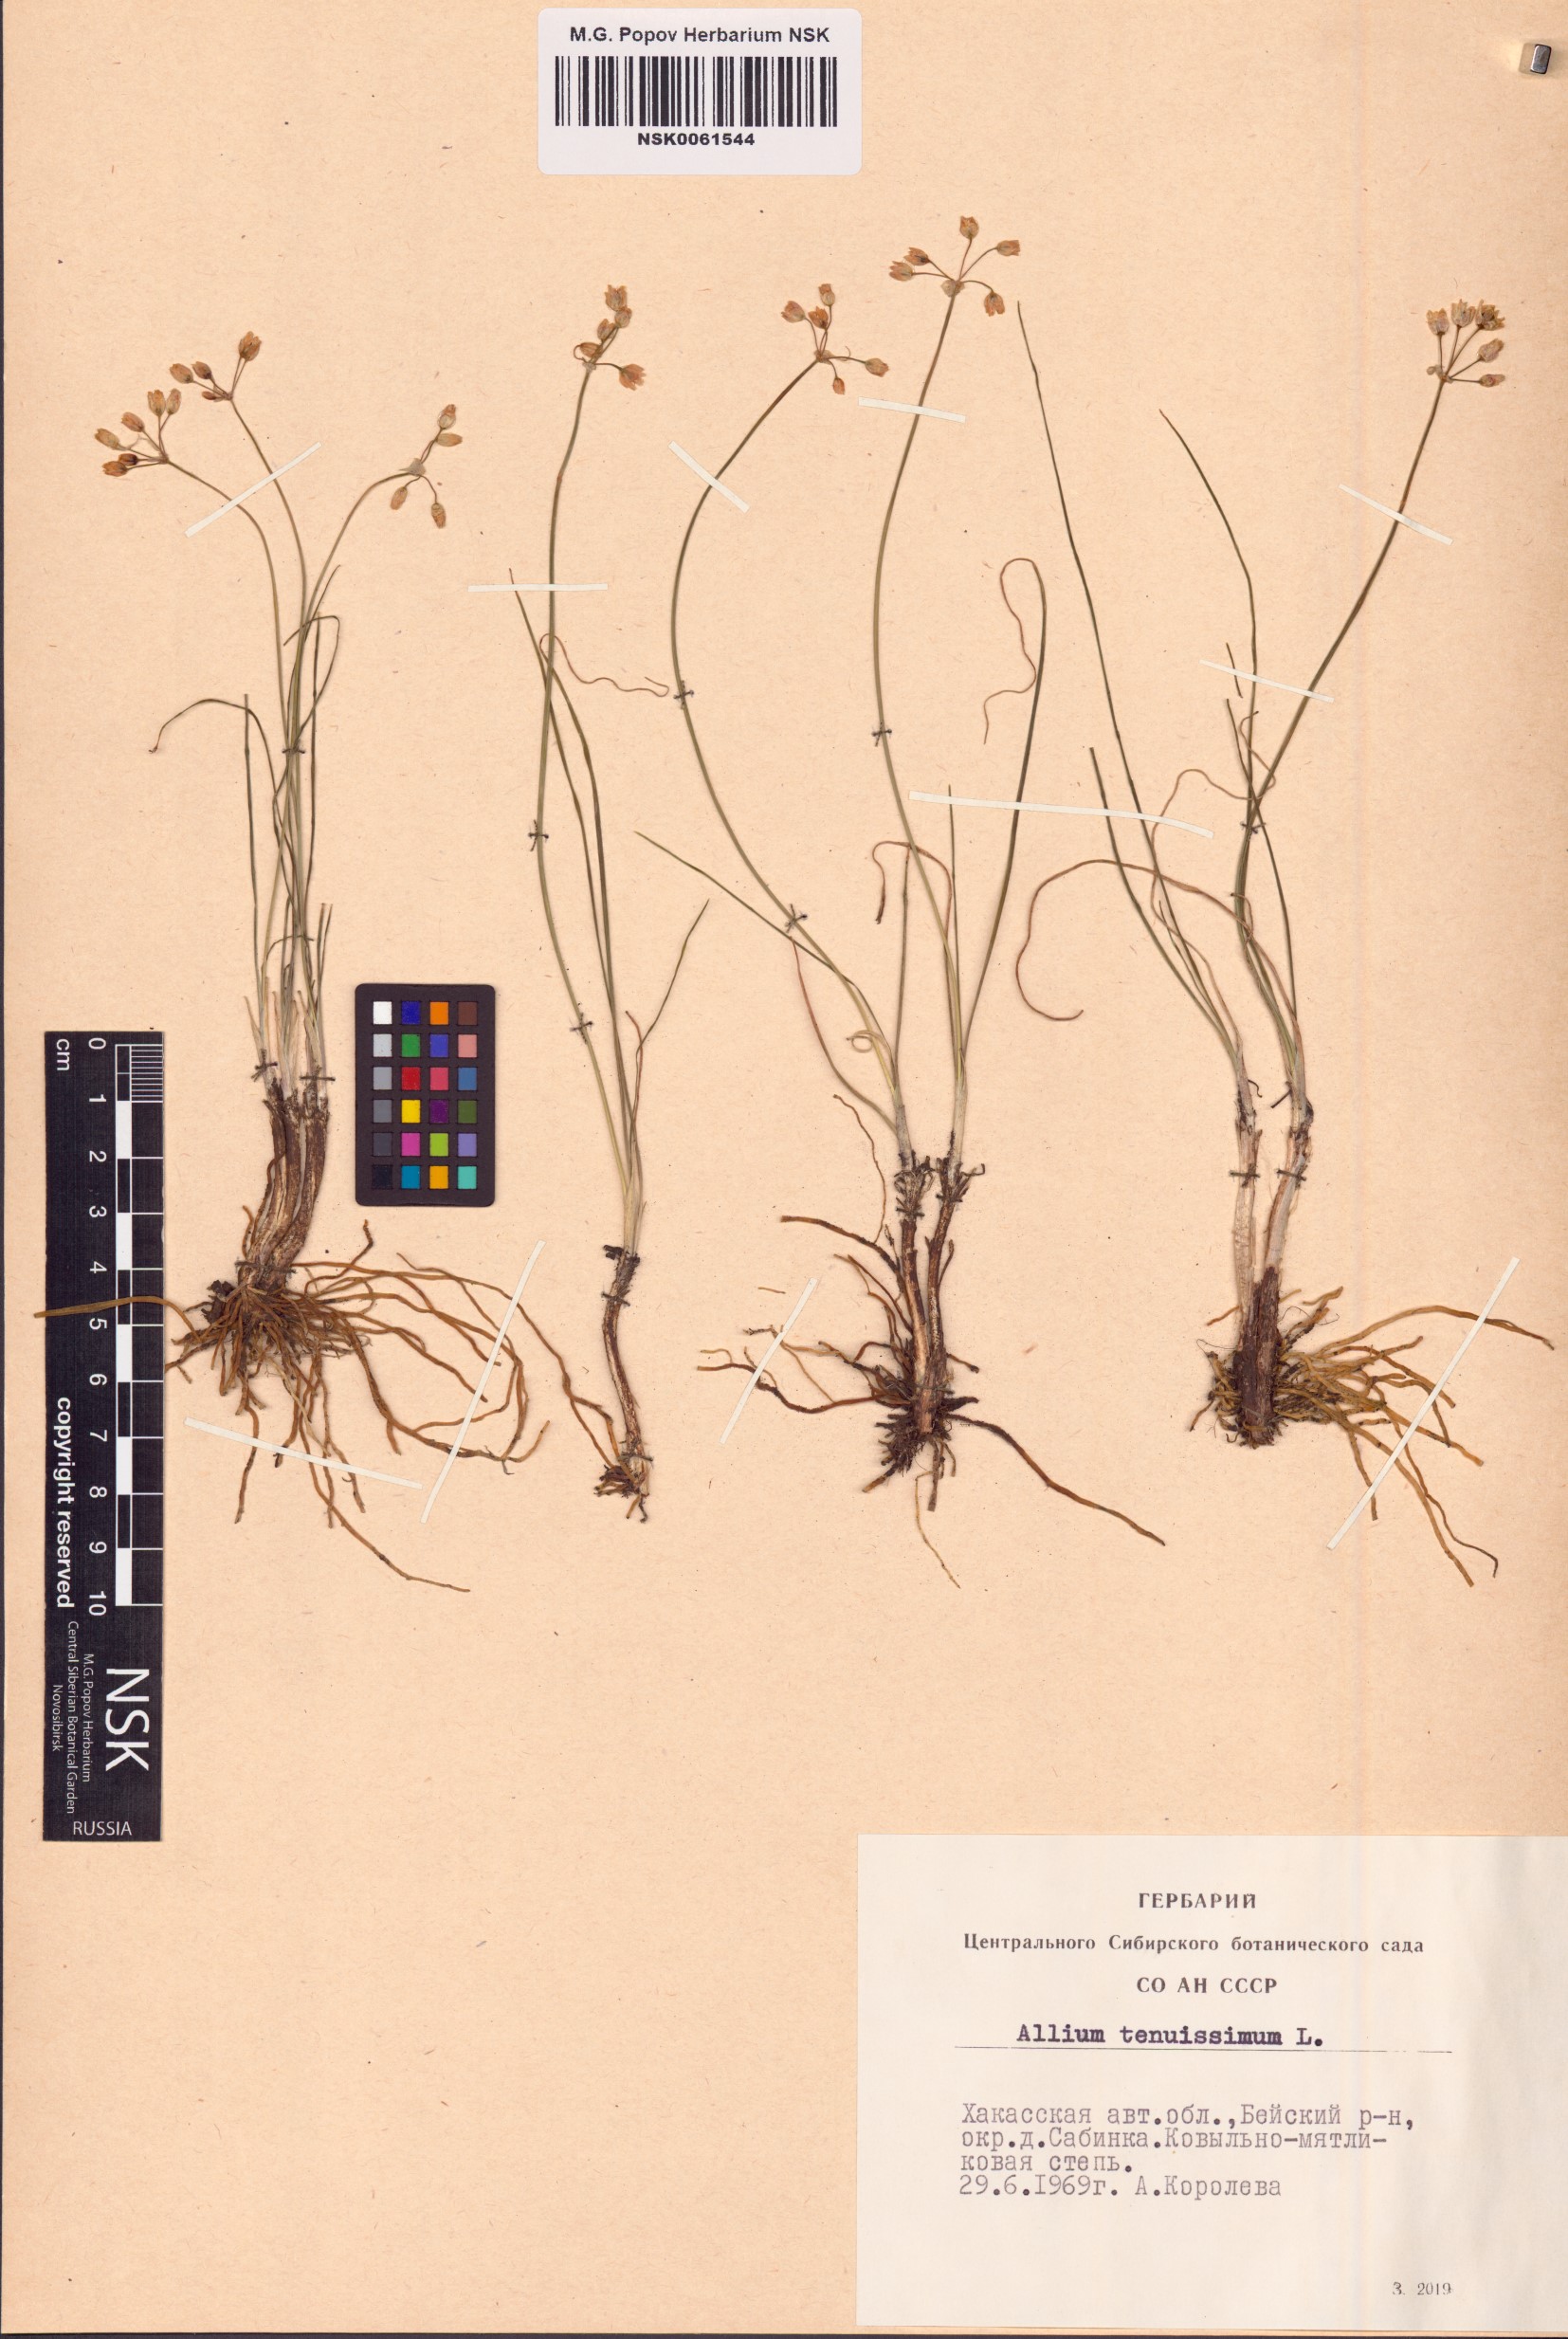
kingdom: Plantae
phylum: Tracheophyta
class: Liliopsida
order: Asparagales
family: Amaryllidaceae
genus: Allium
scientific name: Allium tenuissimum
